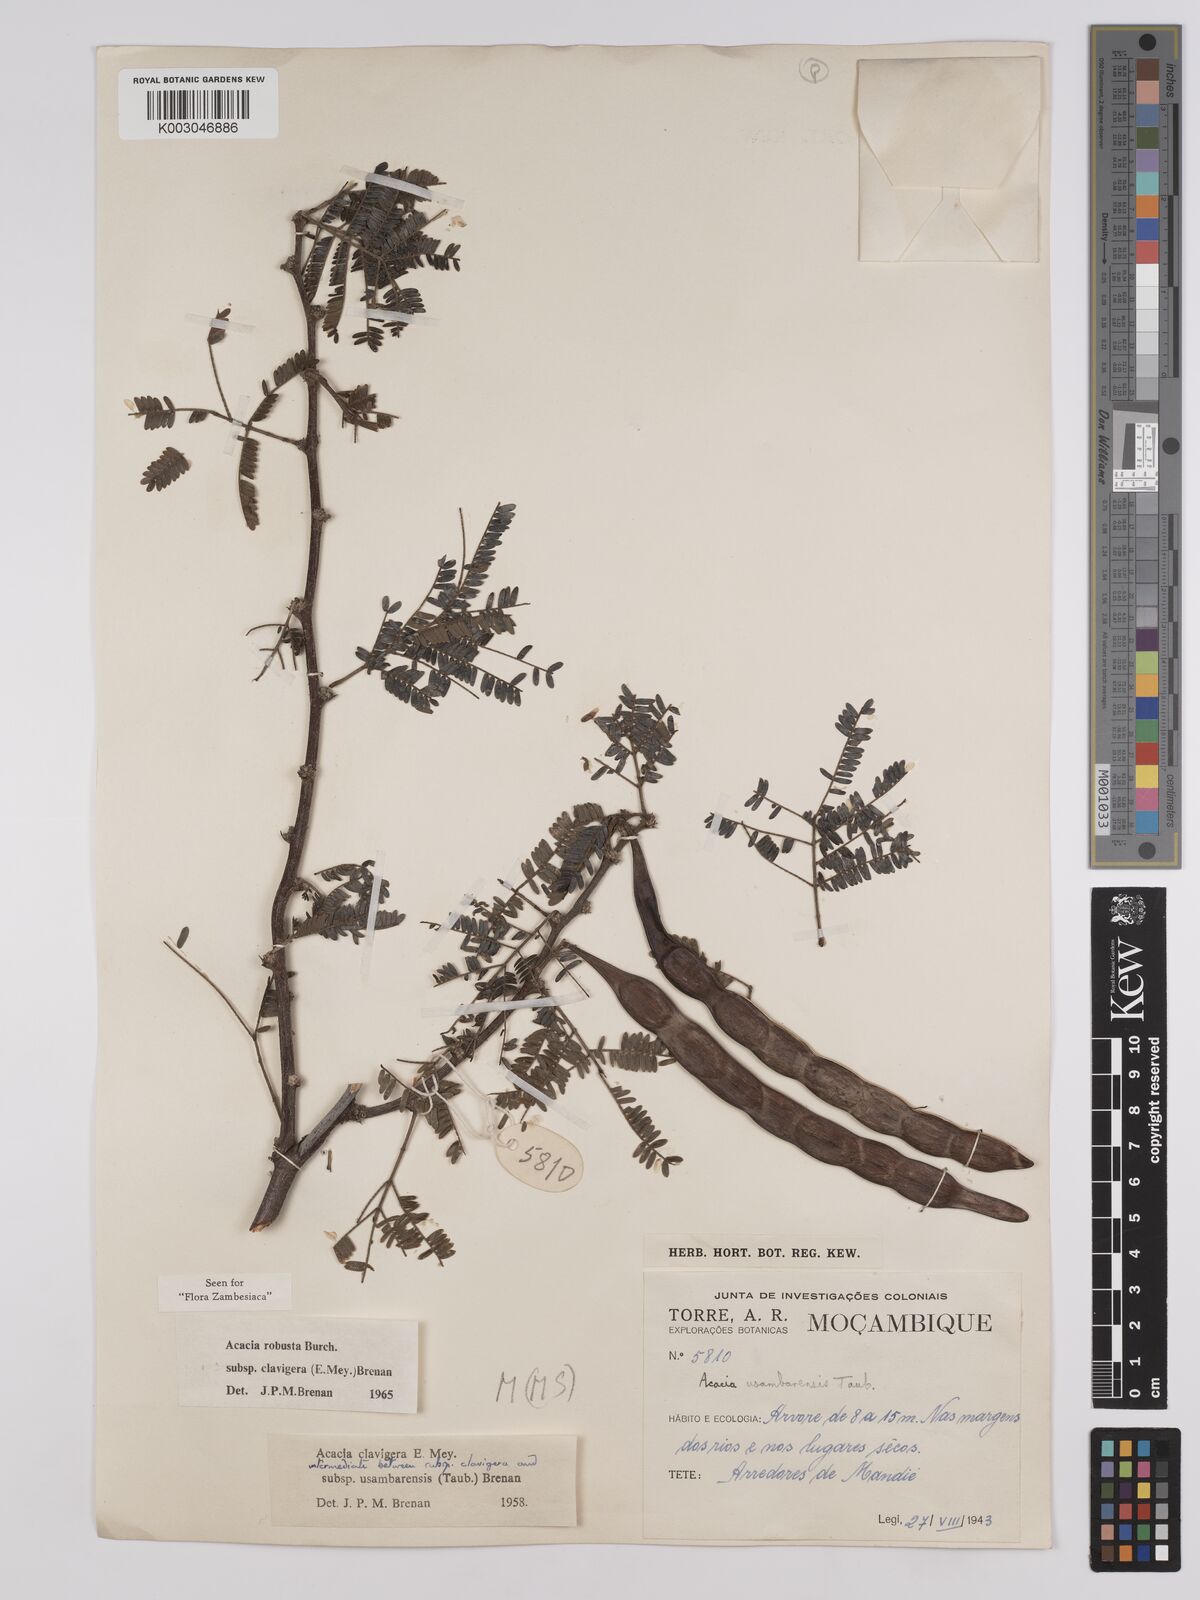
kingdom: Plantae
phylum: Tracheophyta
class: Magnoliopsida
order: Fabales
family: Fabaceae
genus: Vachellia
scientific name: Vachellia robusta
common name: Ankle thorn
